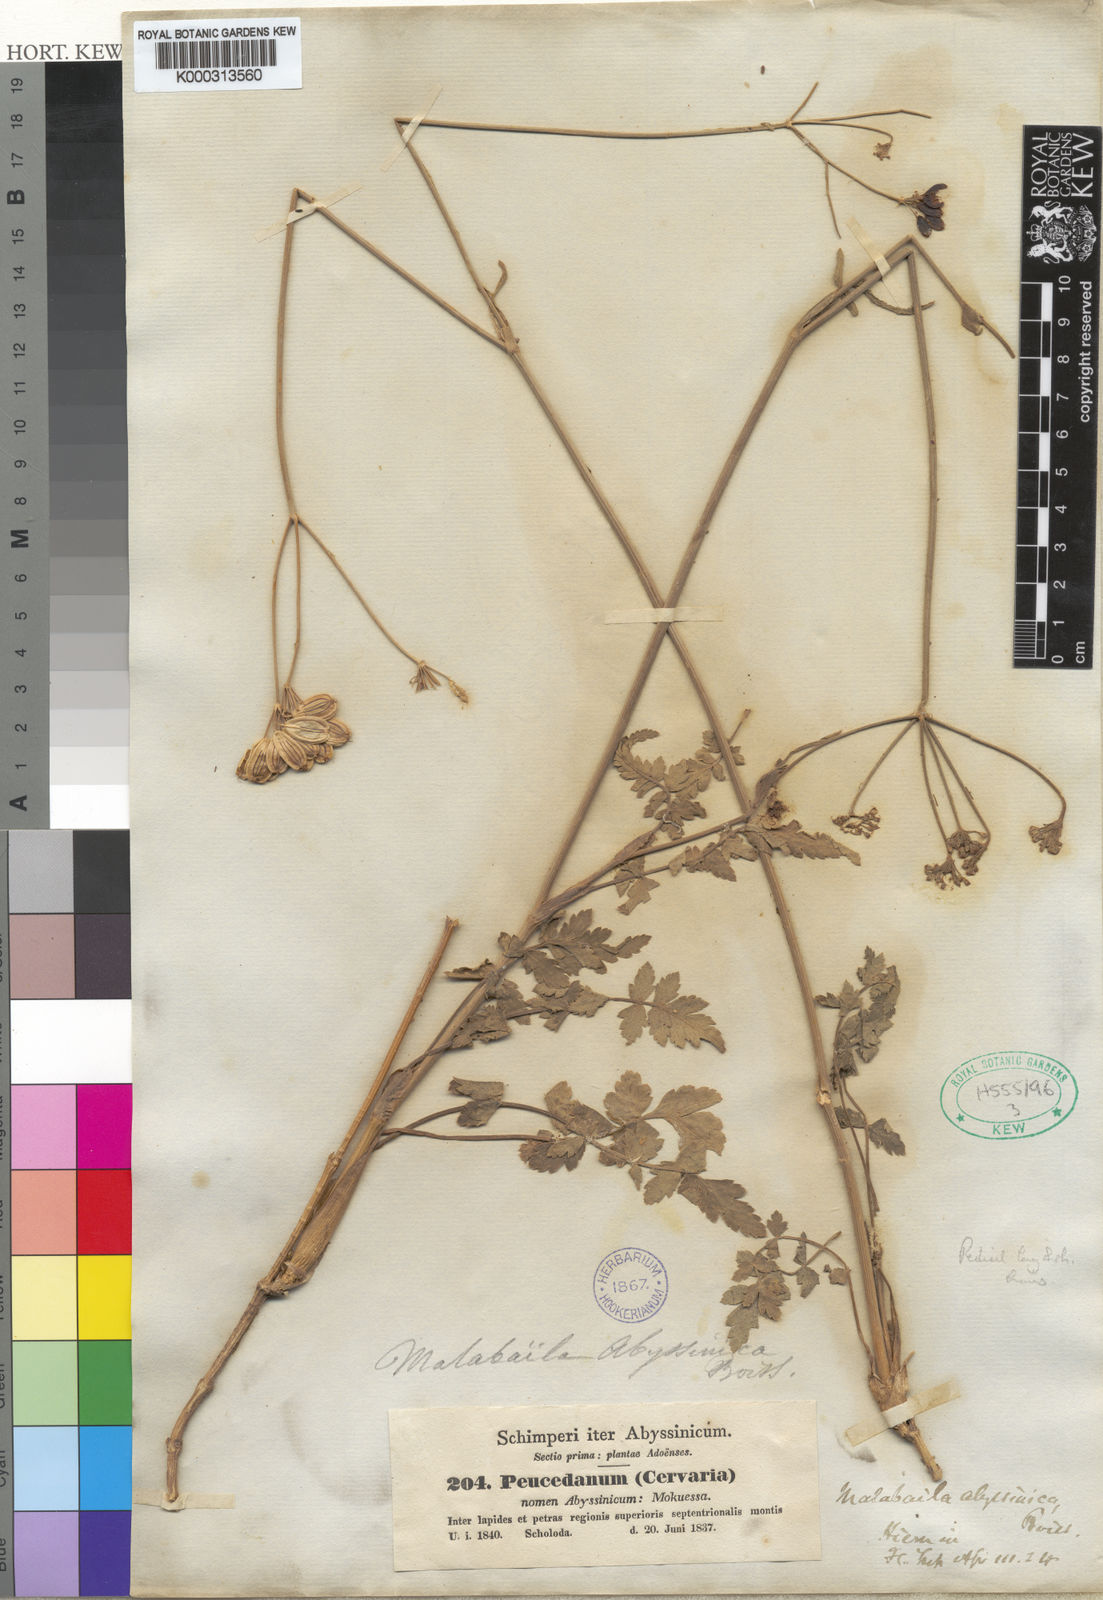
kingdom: Plantae
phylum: Tracheophyta
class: Magnoliopsida
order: Apiales
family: Apiaceae
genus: Heracleum
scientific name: Heracleum abyssinicum
